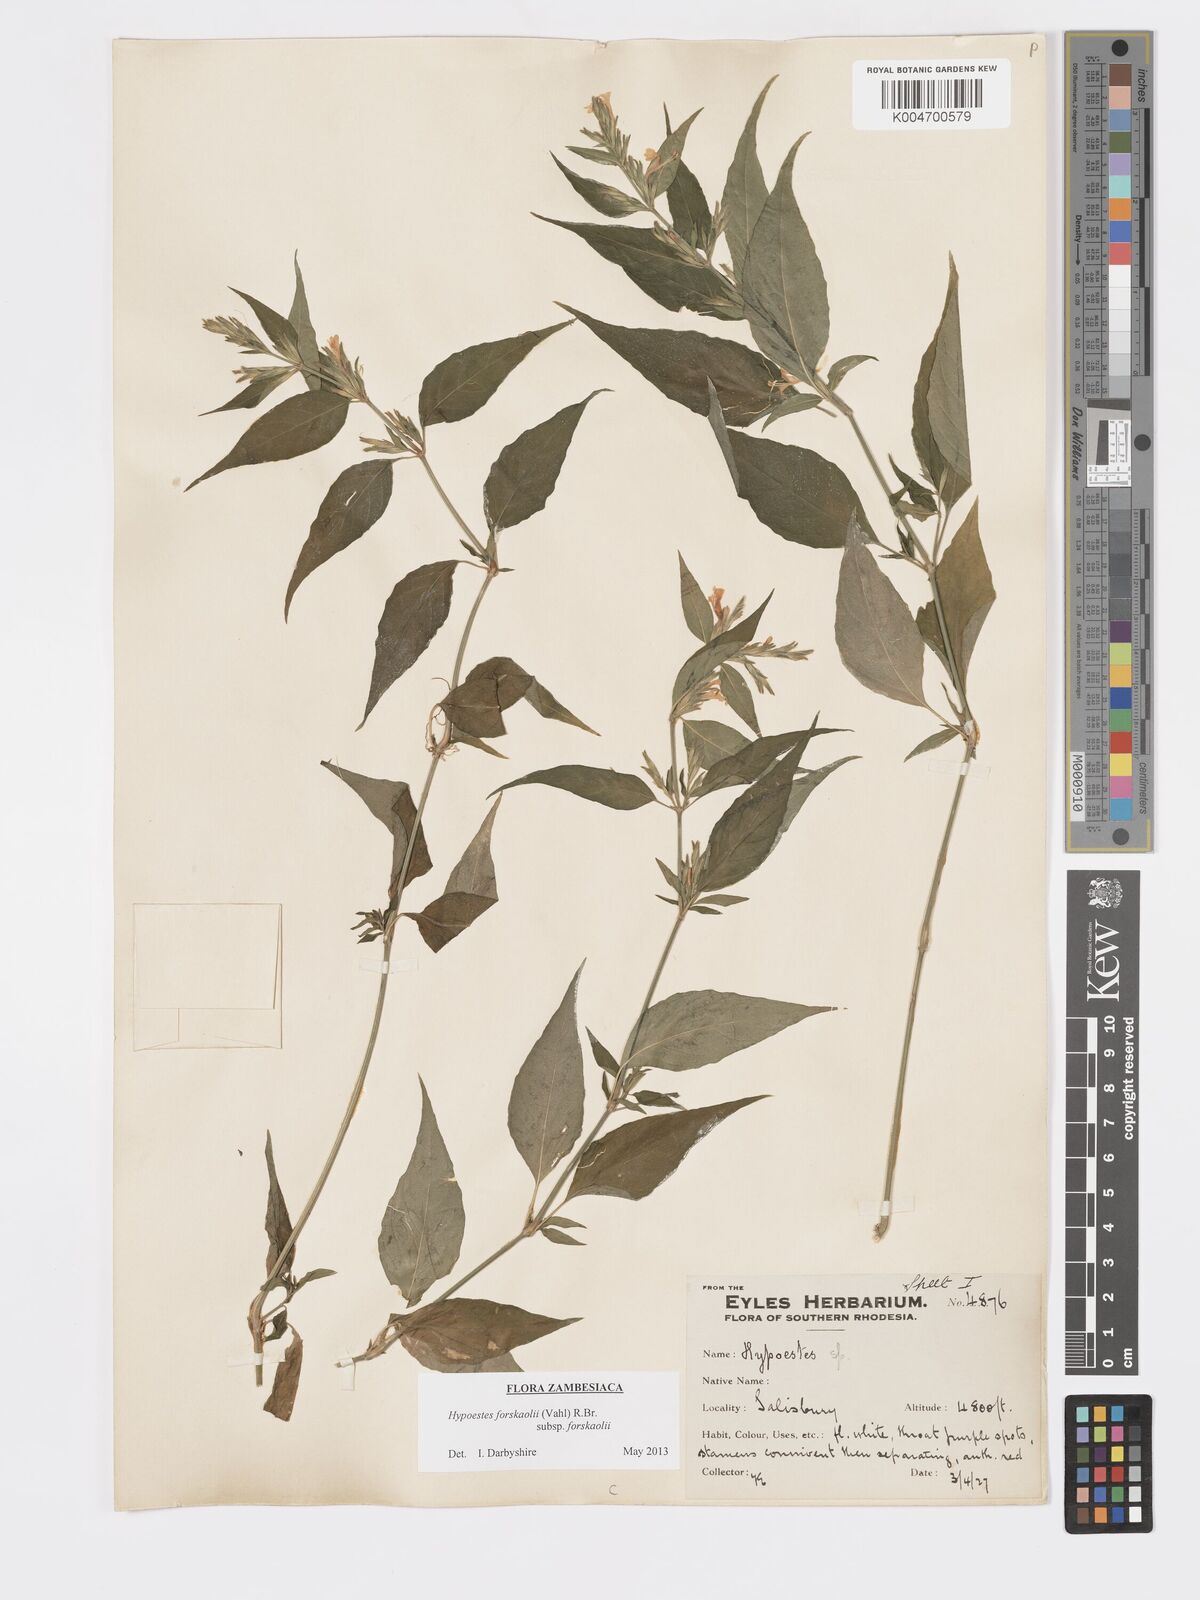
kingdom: Plantae
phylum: Tracheophyta
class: Magnoliopsida
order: Lamiales
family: Acanthaceae
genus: Hypoestes
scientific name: Hypoestes forskaolii
